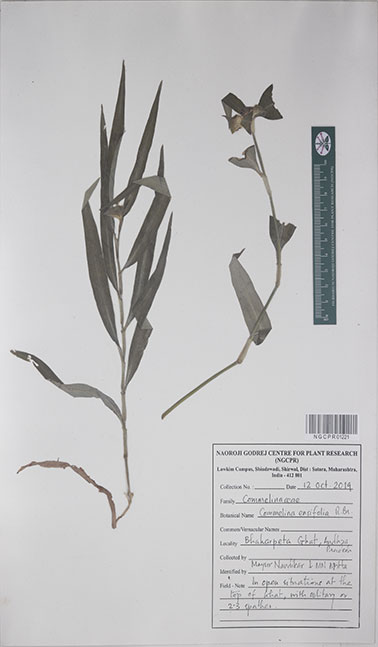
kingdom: Plantae
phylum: Tracheophyta
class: Liliopsida
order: Commelinales
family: Commelinaceae
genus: Commelina
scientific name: Commelina ensifolia
